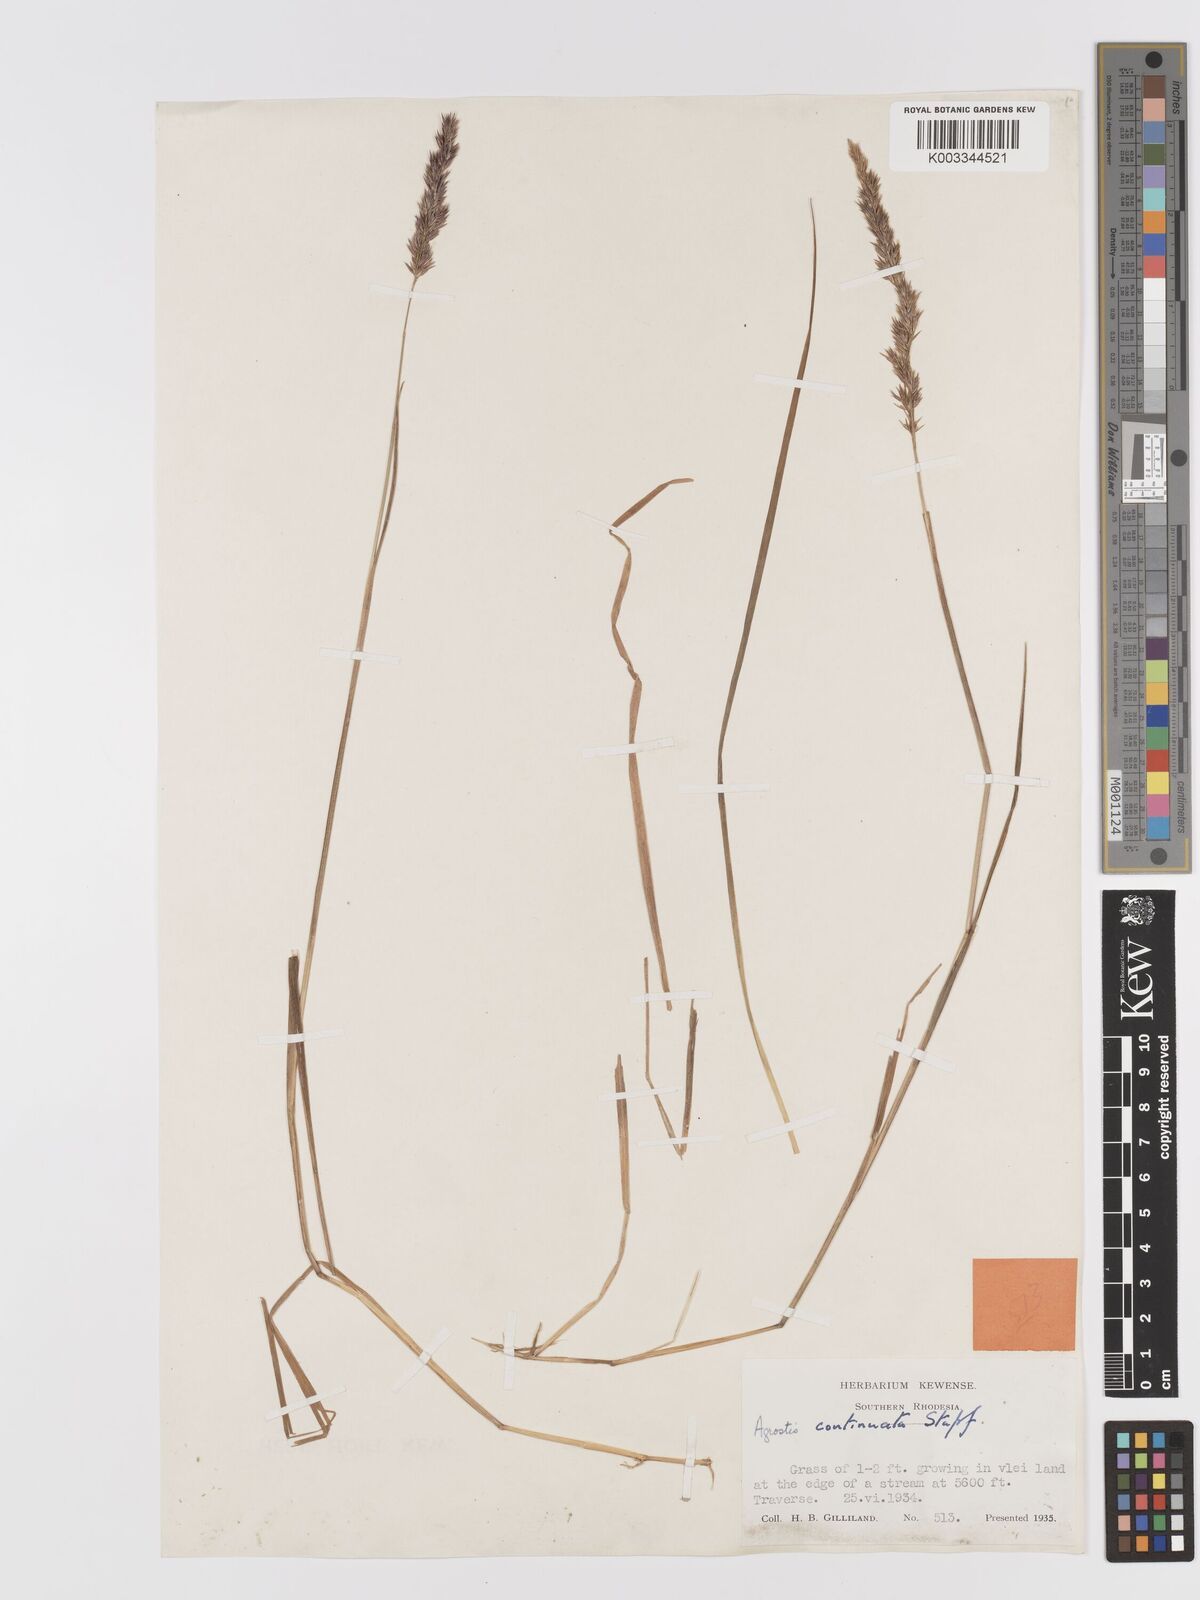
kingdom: Plantae
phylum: Tracheophyta
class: Liliopsida
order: Poales
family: Poaceae
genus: Agrostis
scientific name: Agrostis continuata
